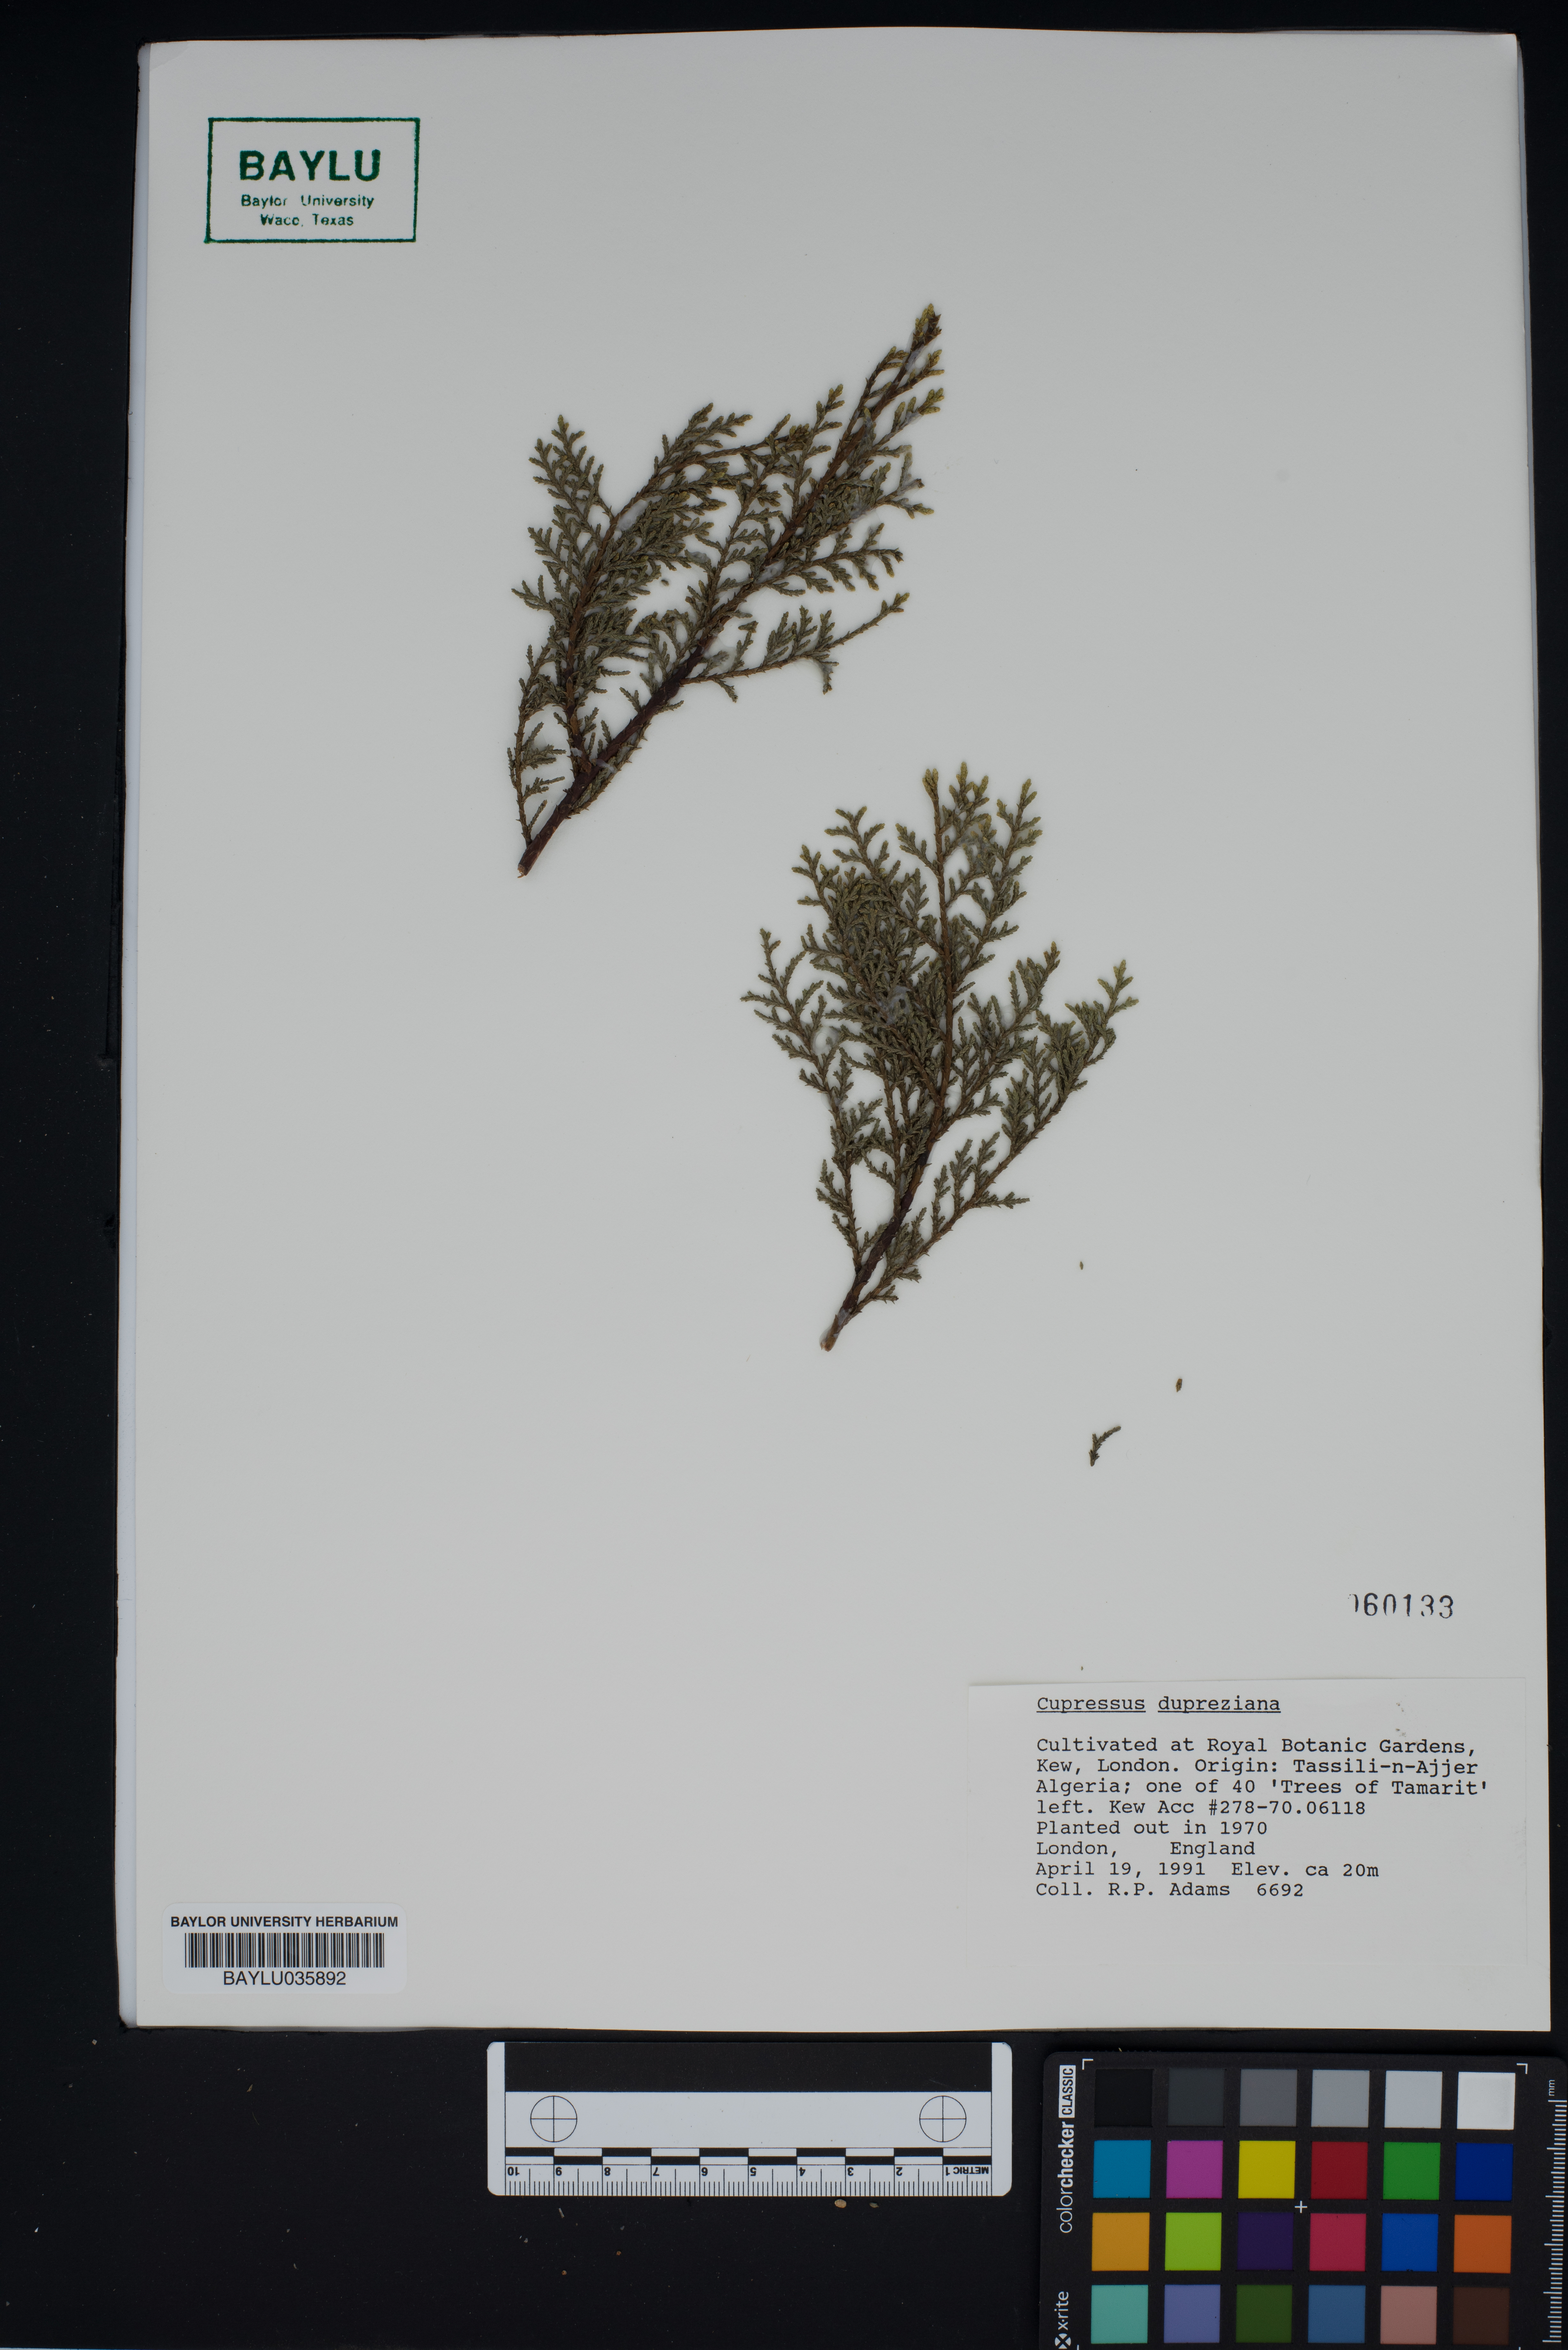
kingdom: Plantae
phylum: Tracheophyta
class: Pinopsida
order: Pinales
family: Cupressaceae
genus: Cupressus
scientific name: Cupressus dupreziana
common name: Moroccan cypress
